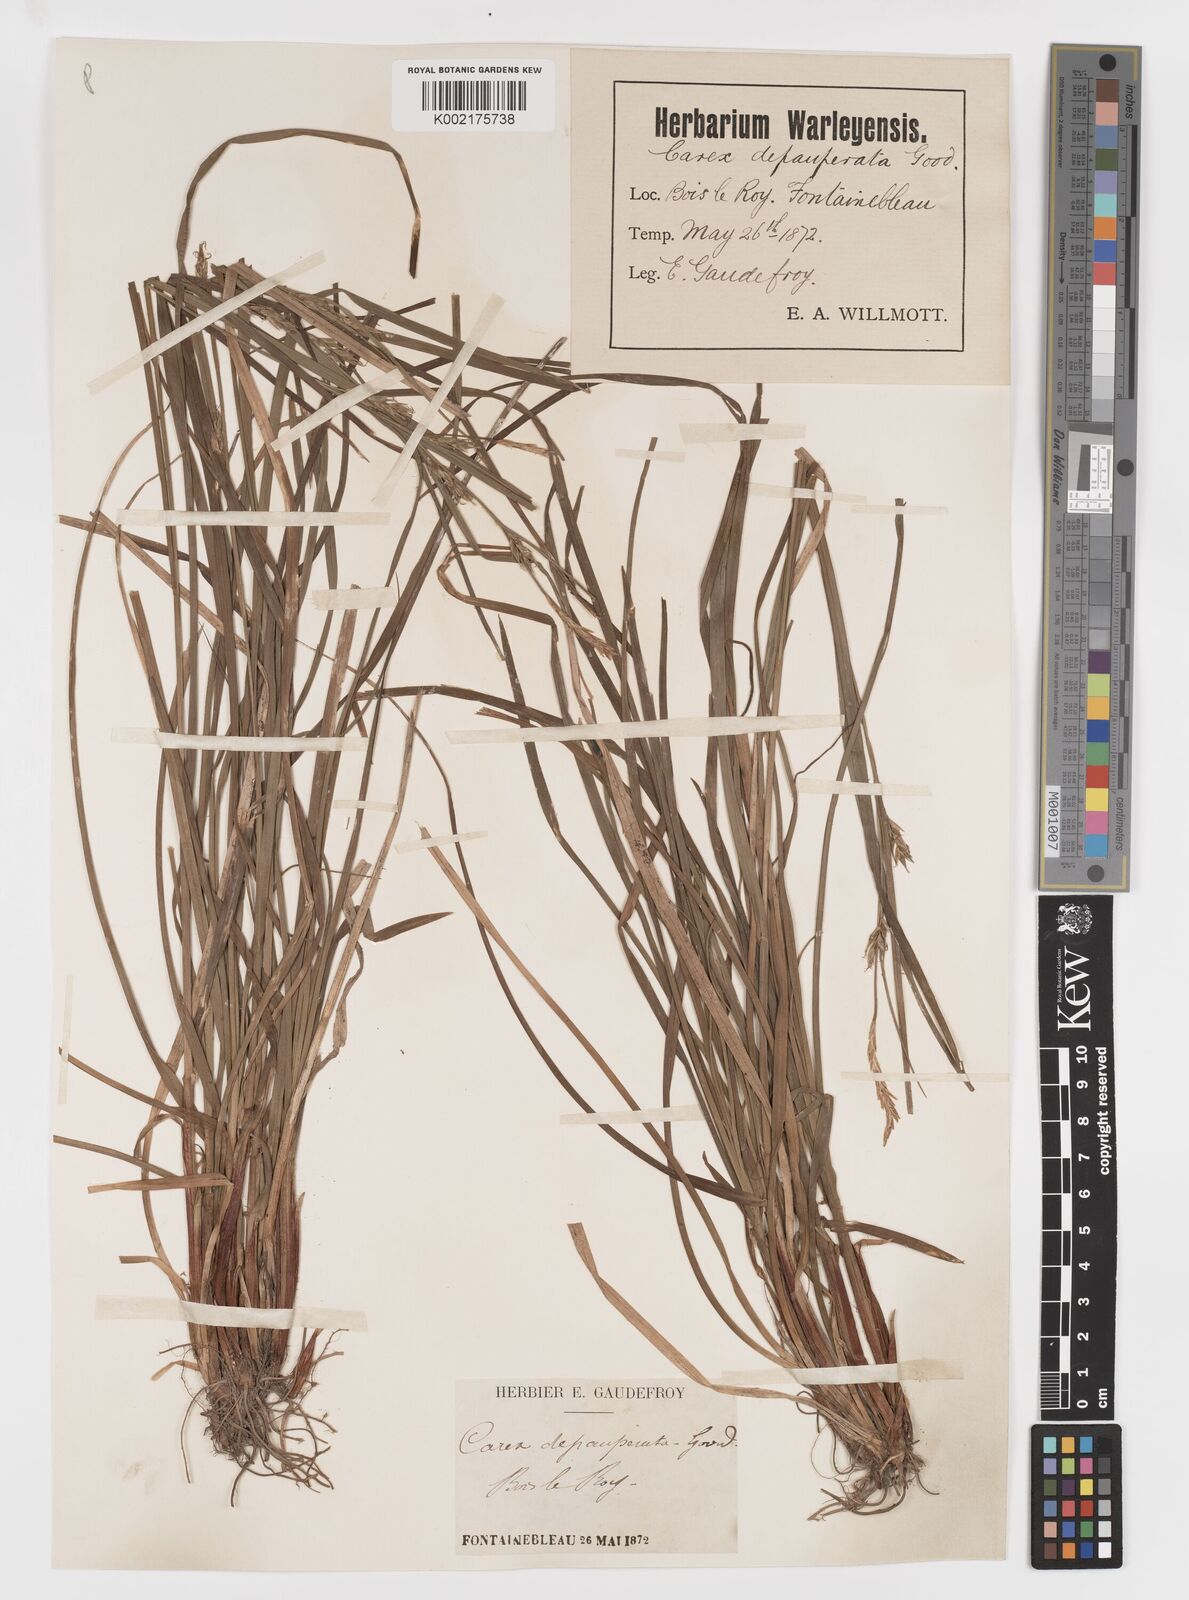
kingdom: Plantae
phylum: Tracheophyta
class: Liliopsida
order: Poales
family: Cyperaceae
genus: Carex
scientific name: Carex
